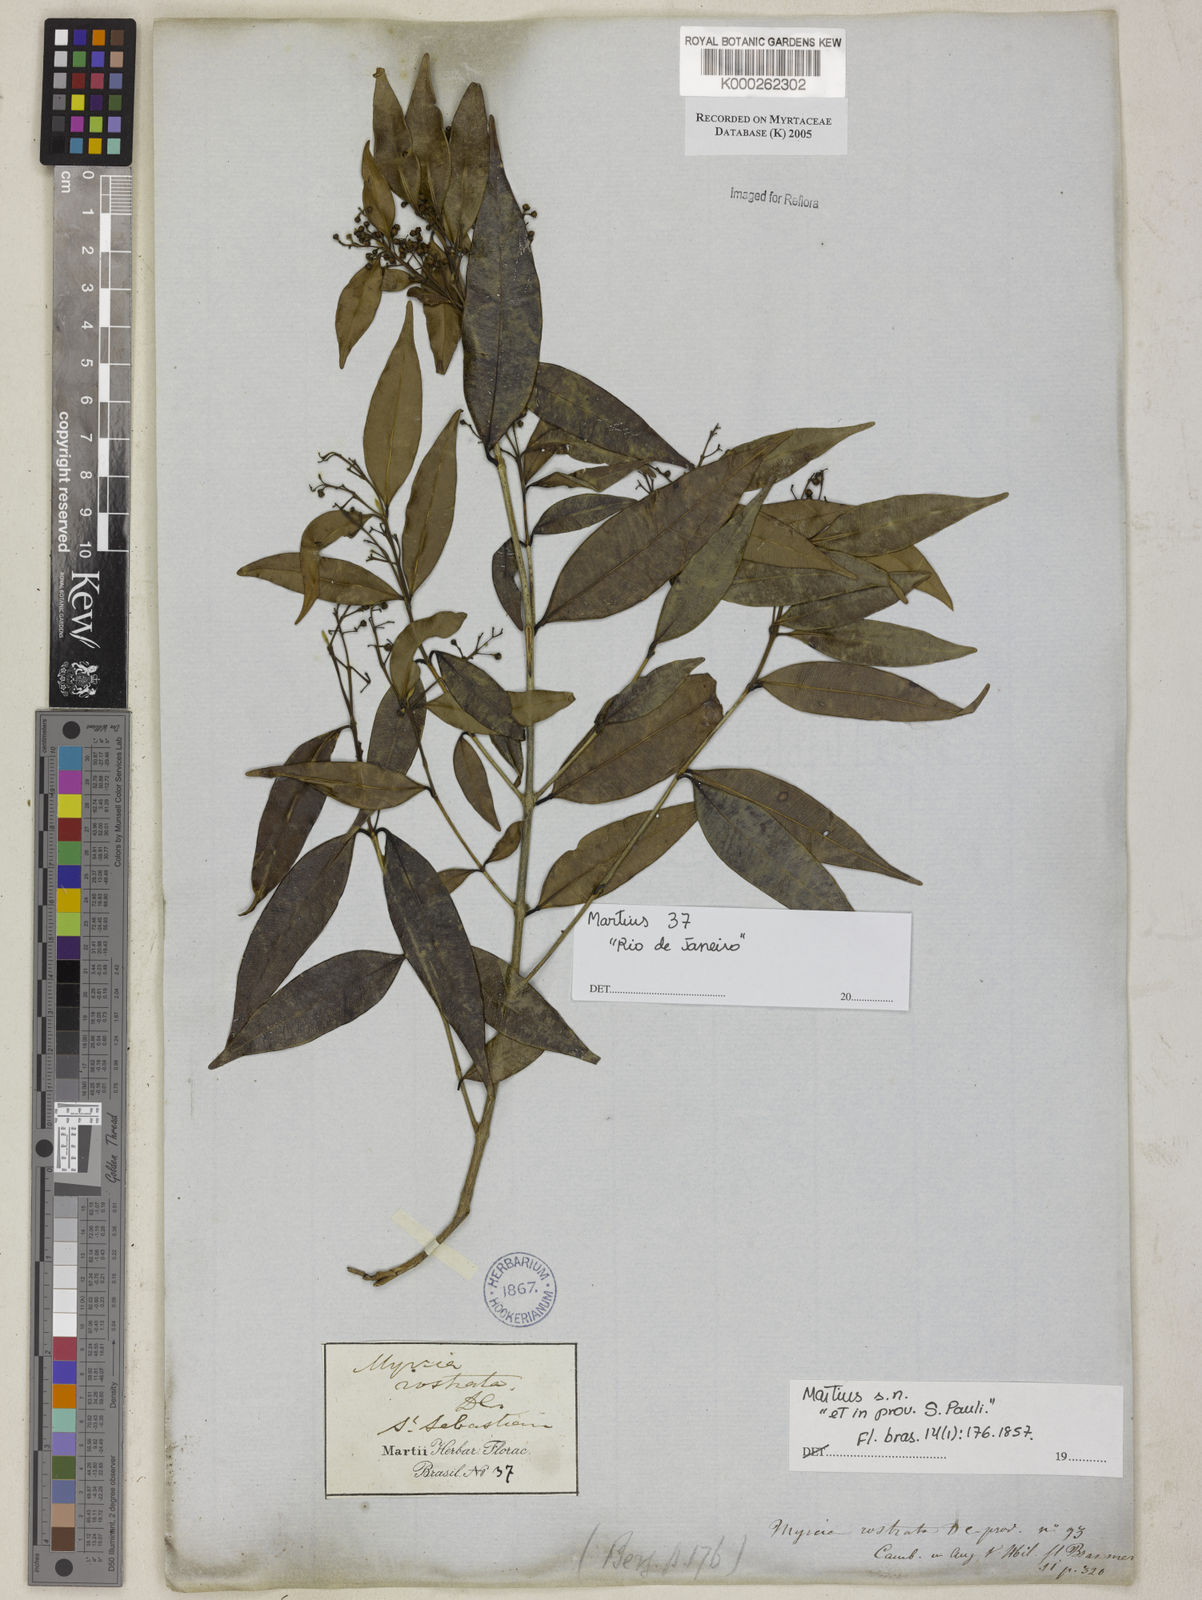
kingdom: Plantae
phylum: Tracheophyta
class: Magnoliopsida
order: Myrtales
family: Myrtaceae
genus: Myrcia
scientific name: Myrcia splendens
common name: Surinam cherry
